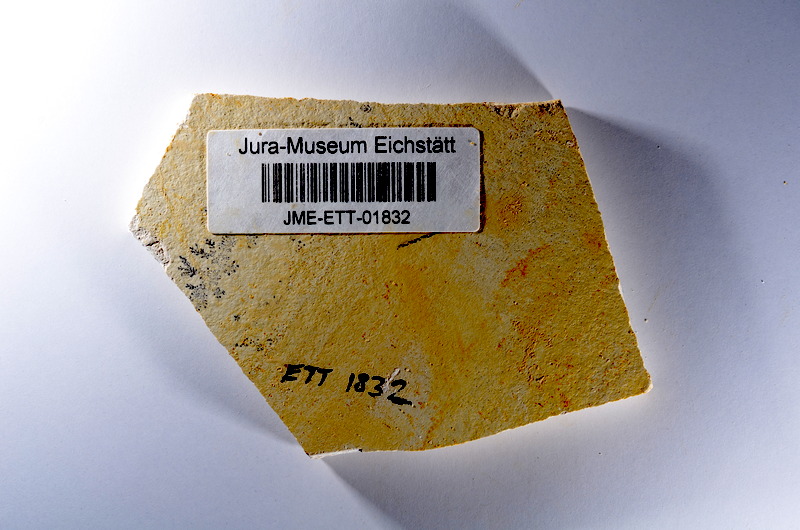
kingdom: Animalia
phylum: Chordata
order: Salmoniformes
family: Orthogonikleithridae
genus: Orthogonikleithrus
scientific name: Orthogonikleithrus hoelli
